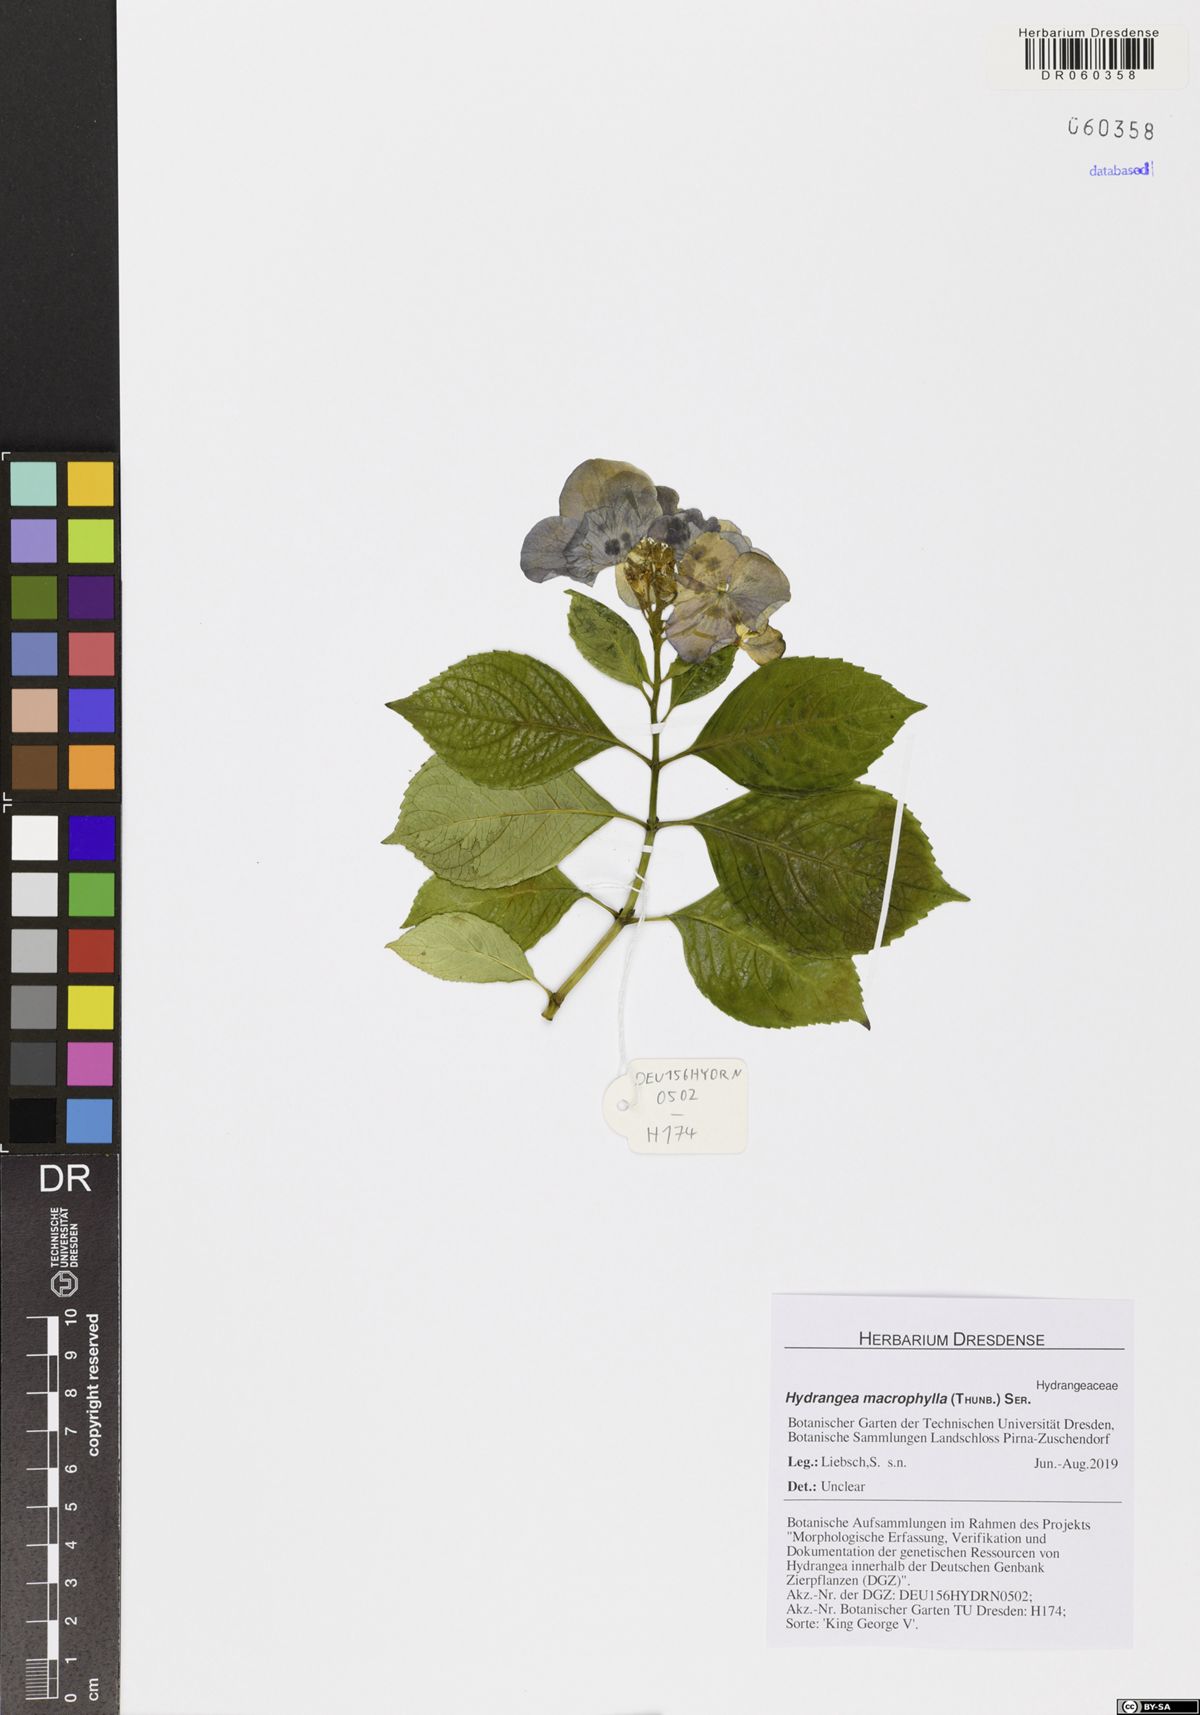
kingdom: Plantae
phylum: Tracheophyta
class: Magnoliopsida
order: Cornales
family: Hydrangeaceae
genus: Hydrangea
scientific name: Hydrangea macrophylla
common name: Hydrangea
